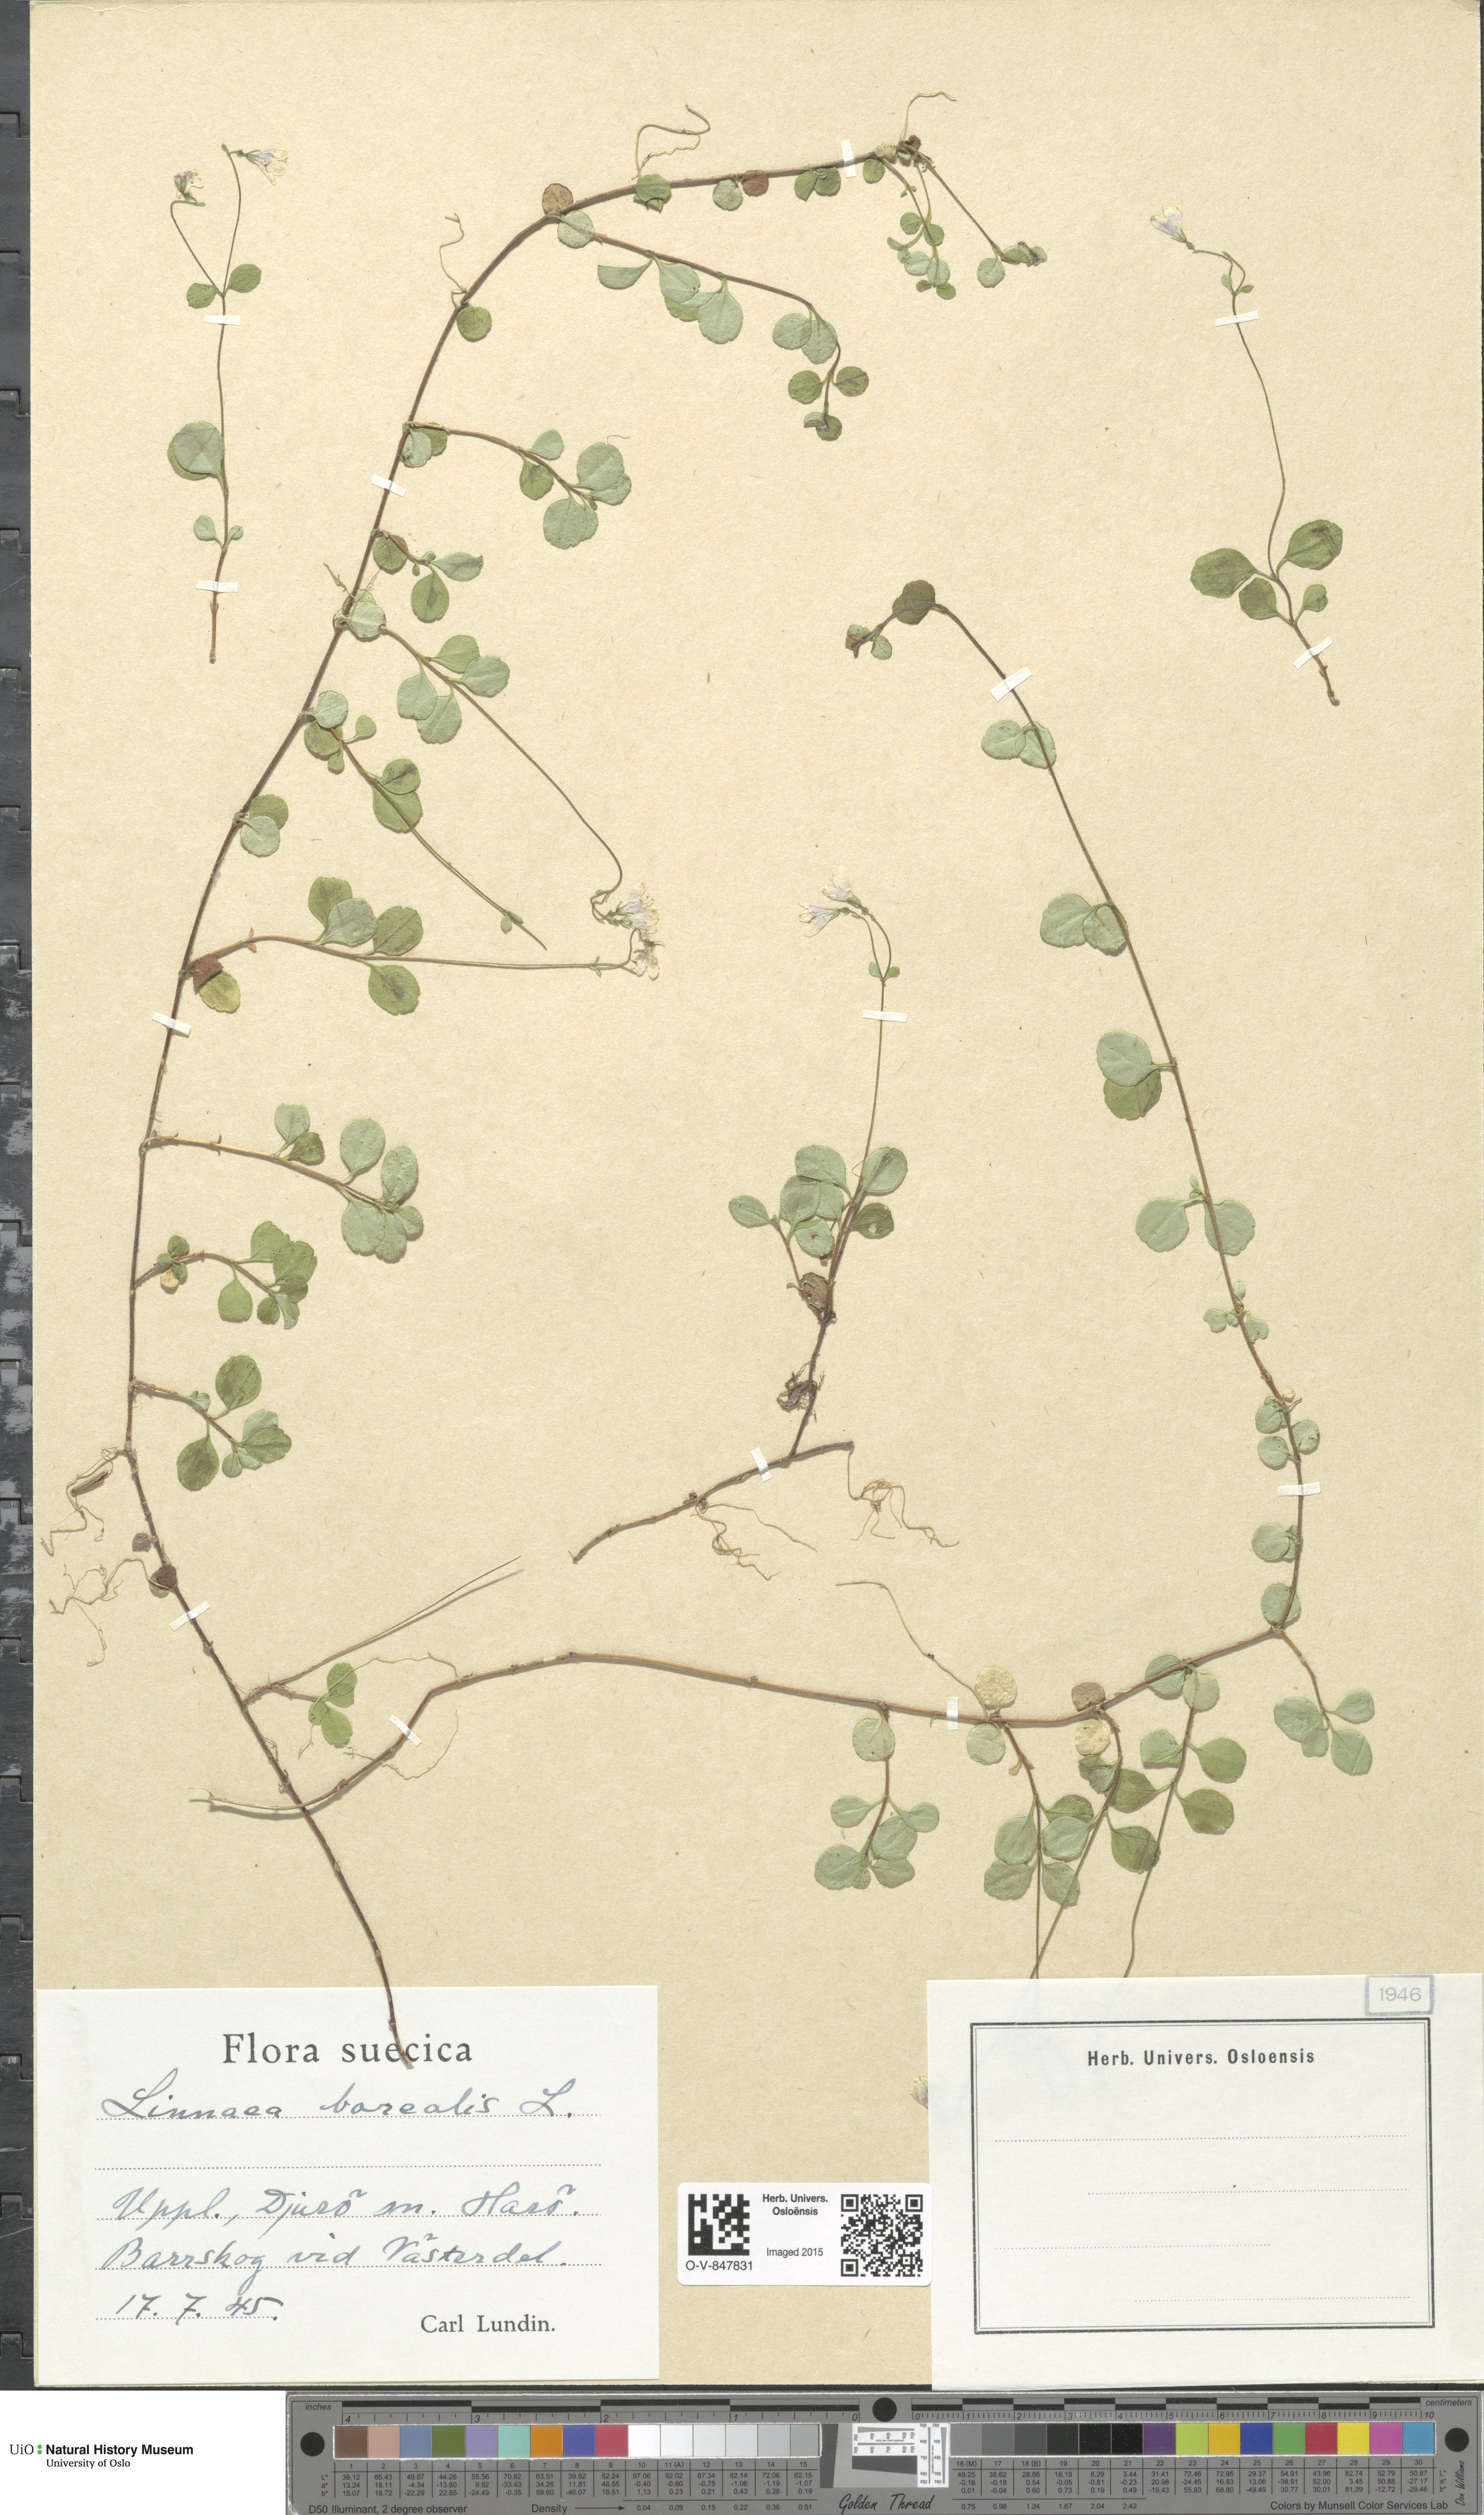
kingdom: Plantae
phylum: Tracheophyta
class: Magnoliopsida
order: Dipsacales
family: Caprifoliaceae
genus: Linnaea
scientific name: Linnaea borealis
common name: Twinflower
